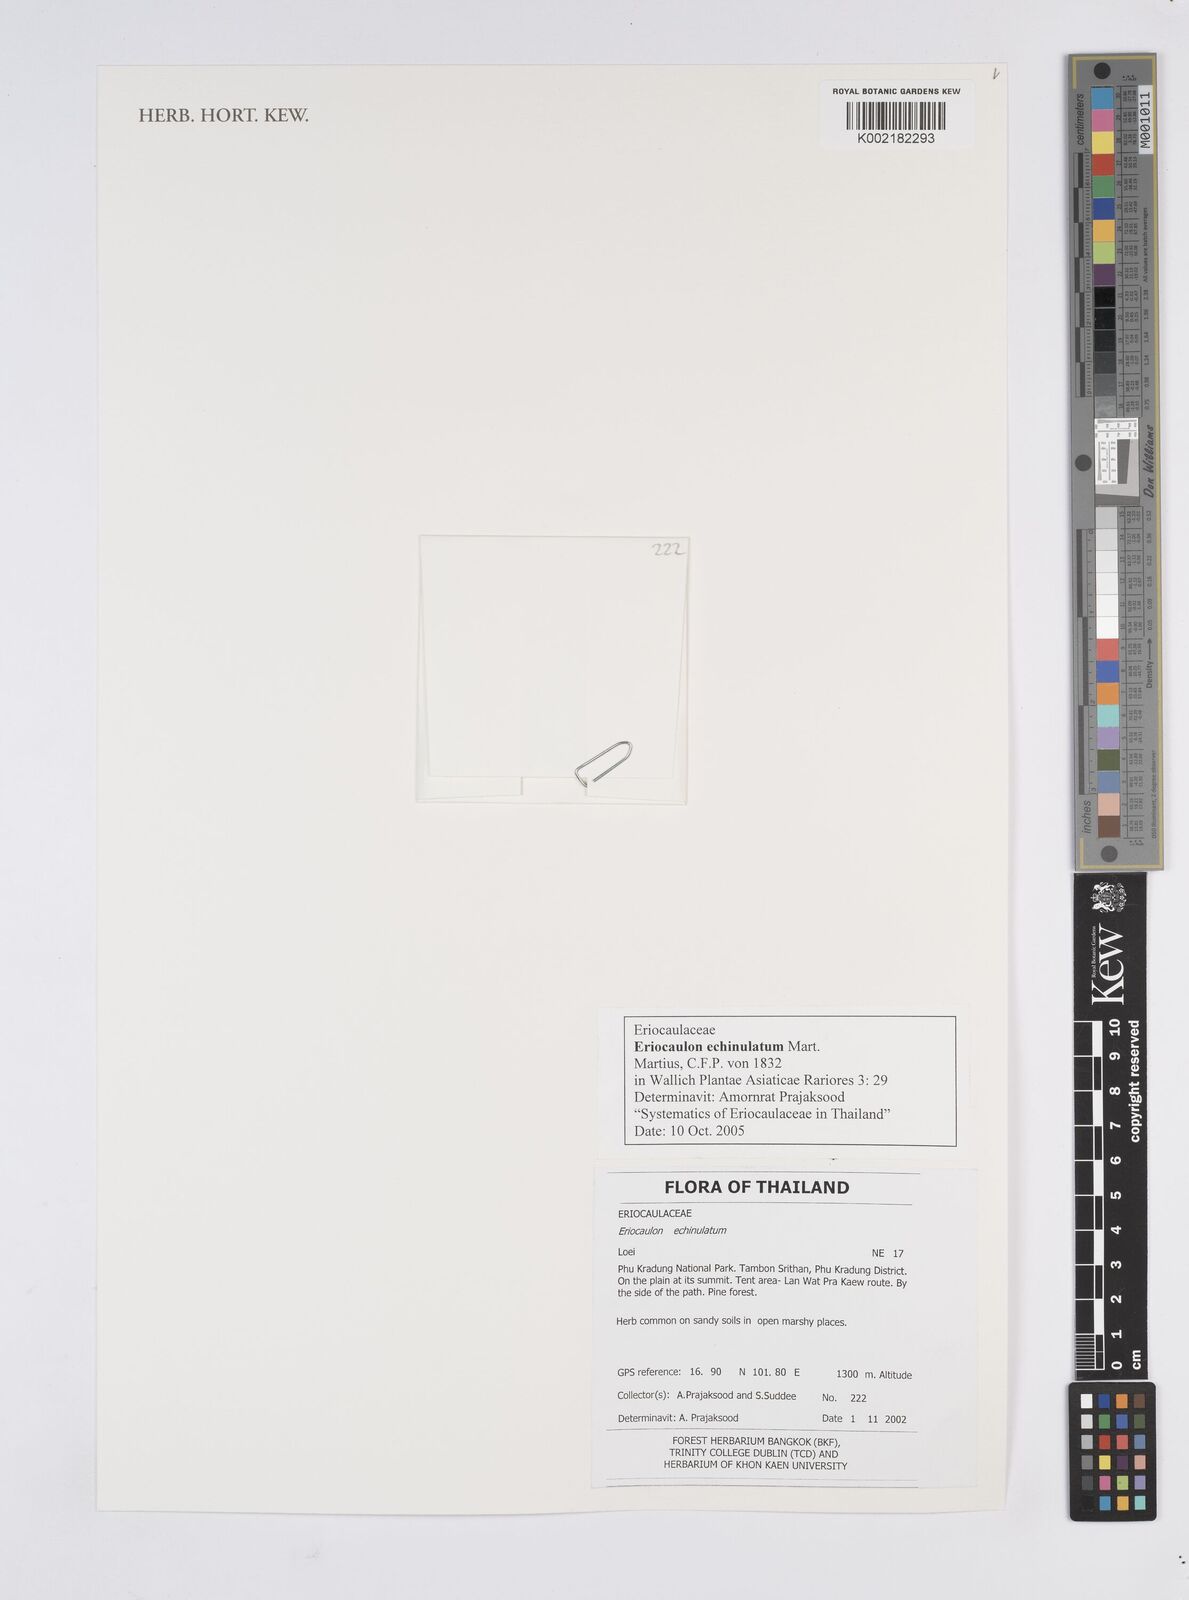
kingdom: Plantae
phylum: Tracheophyta
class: Liliopsida
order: Poales
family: Eriocaulaceae
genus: Eriocaulon
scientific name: Eriocaulon echinulatum
